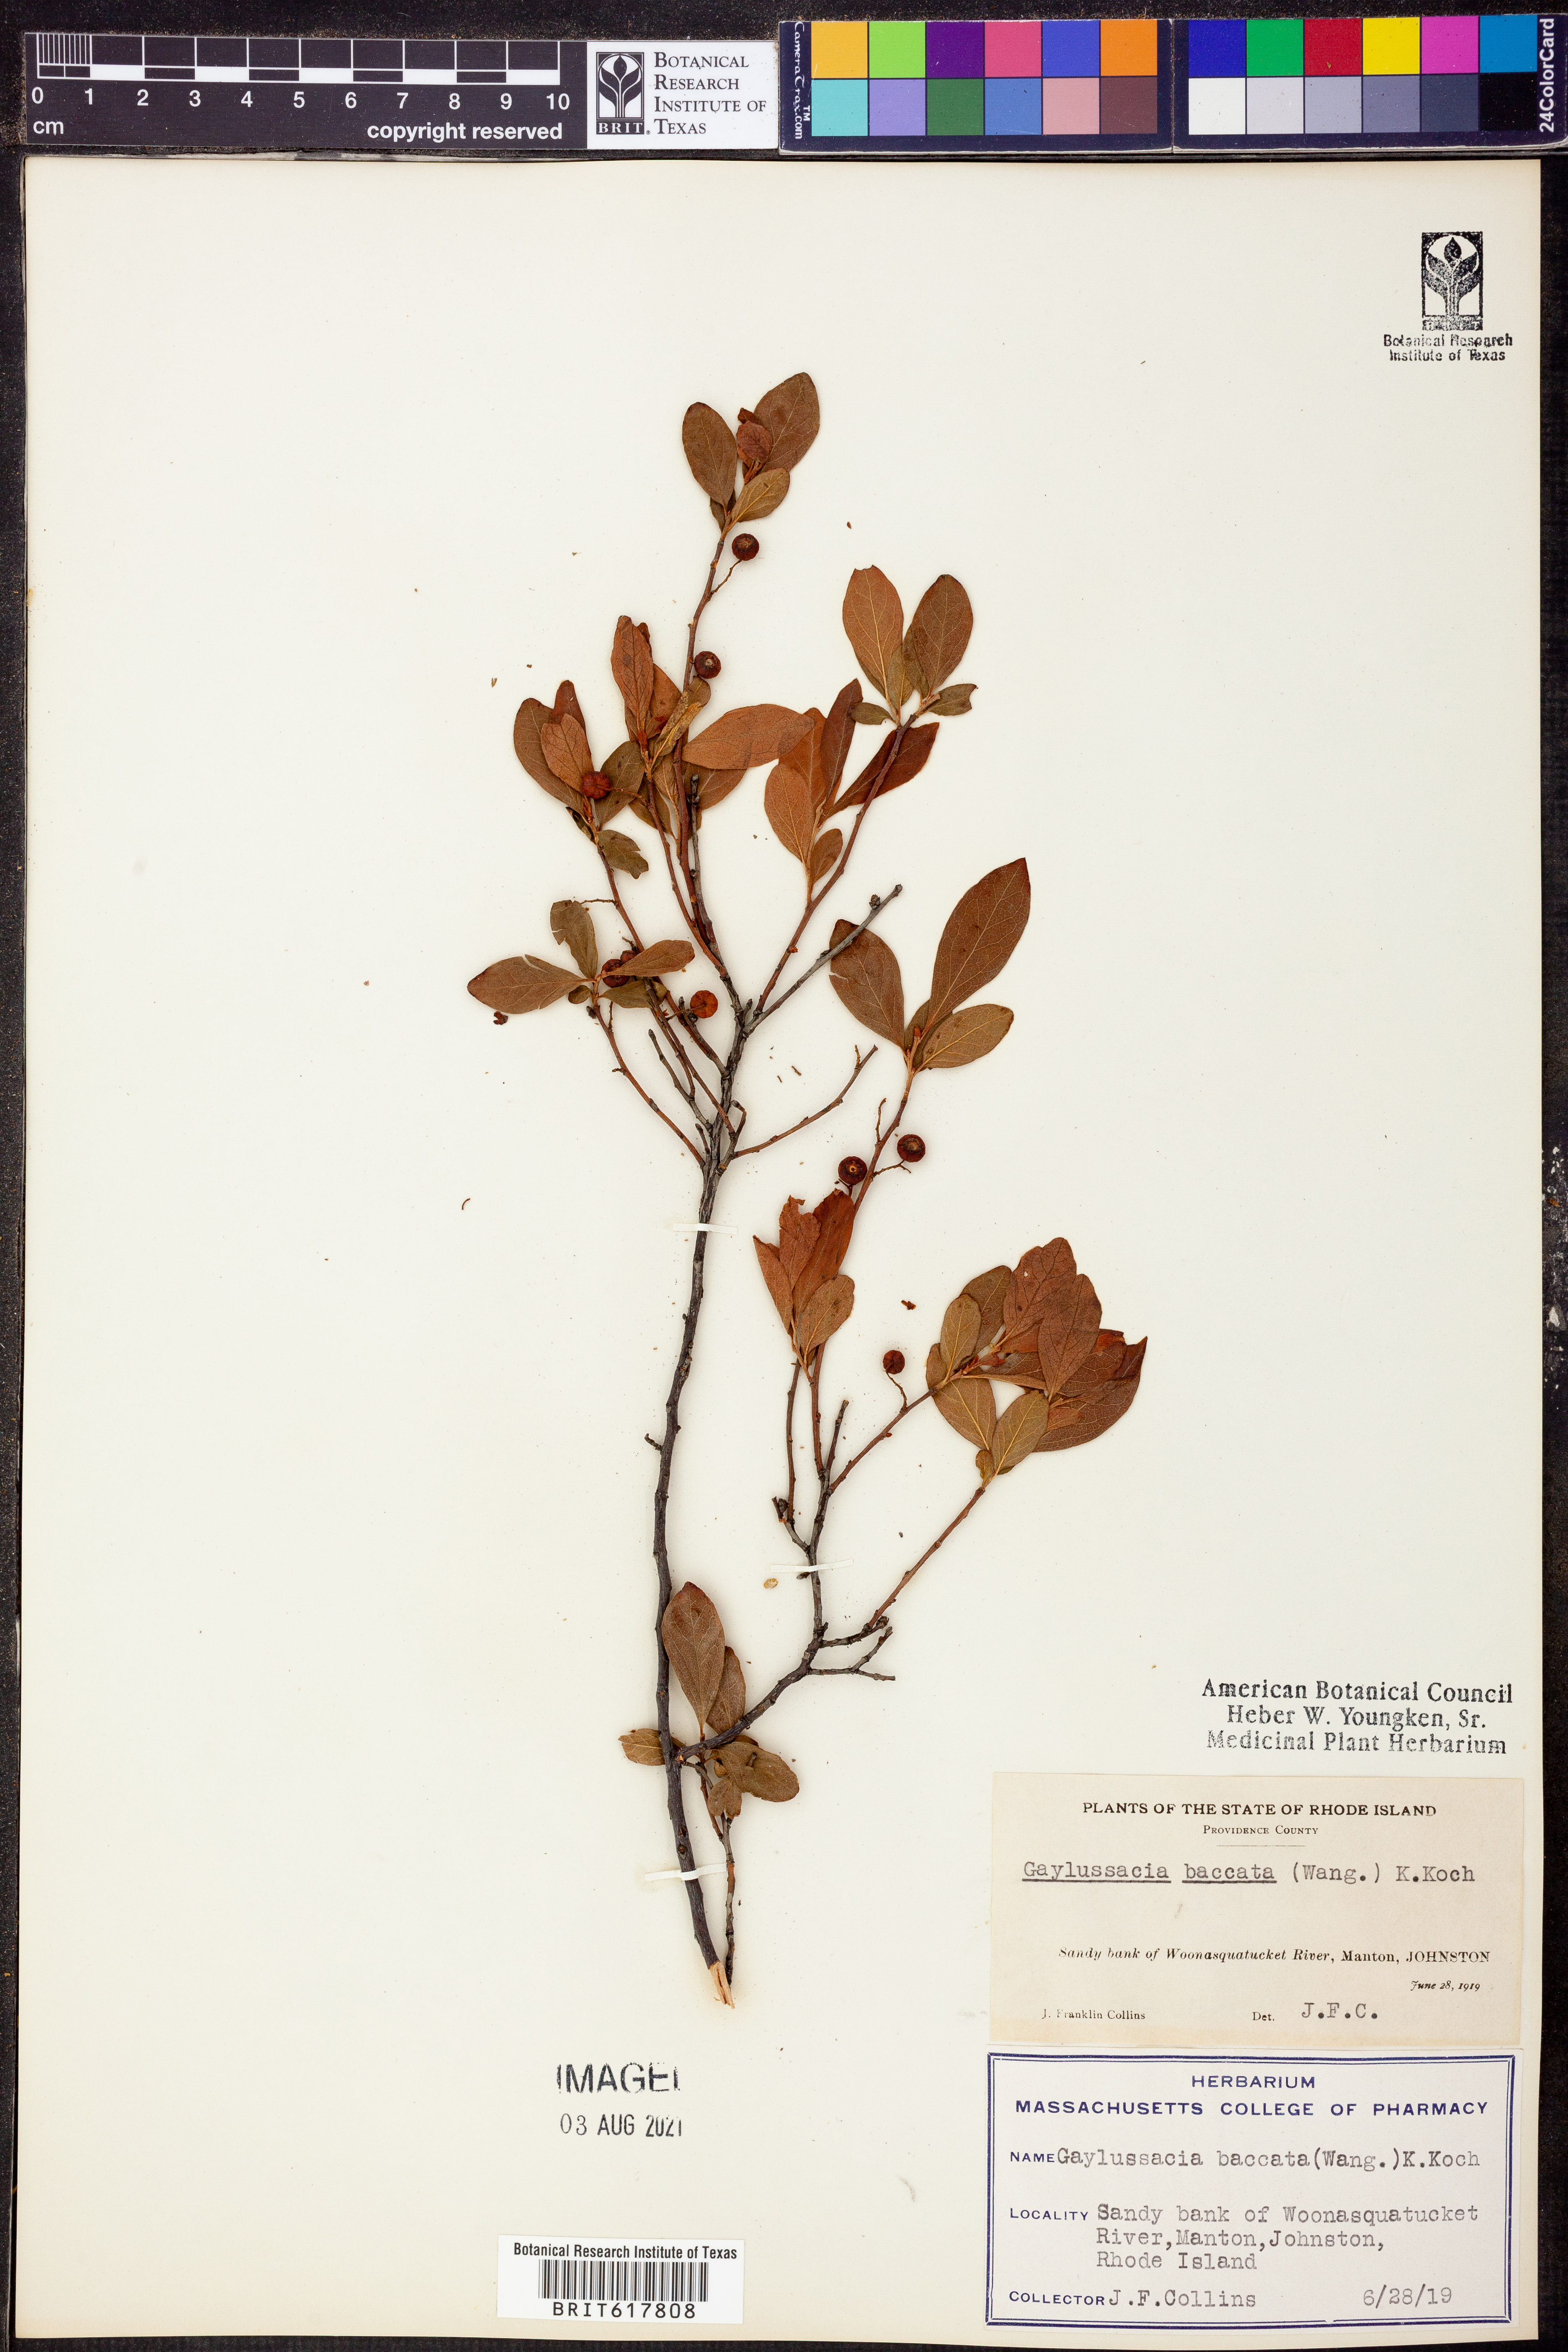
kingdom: Plantae
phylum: Tracheophyta
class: Magnoliopsida
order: Ericales
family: Ericaceae
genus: Gaylussacia
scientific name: Gaylussacia baccata
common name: Black huckleberry
